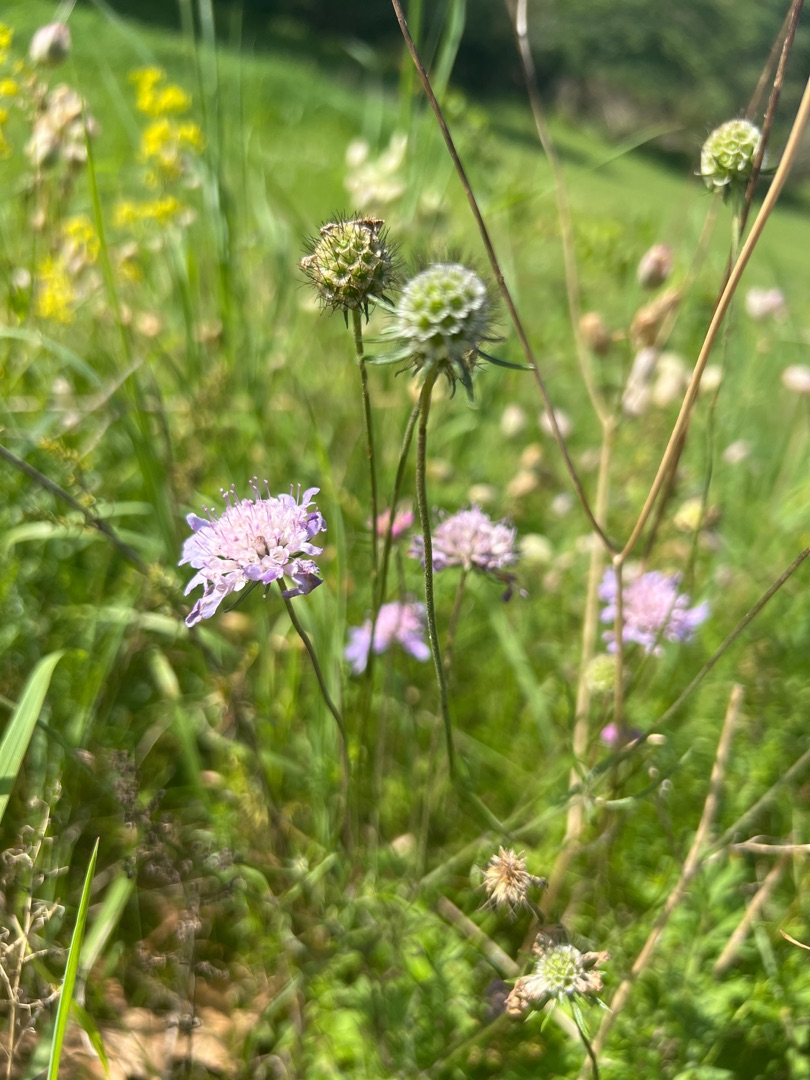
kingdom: Plantae
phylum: Tracheophyta
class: Magnoliopsida
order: Dipsacales
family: Caprifoliaceae
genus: Scabiosa
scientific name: Scabiosa columbaria
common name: Due-skabiose
